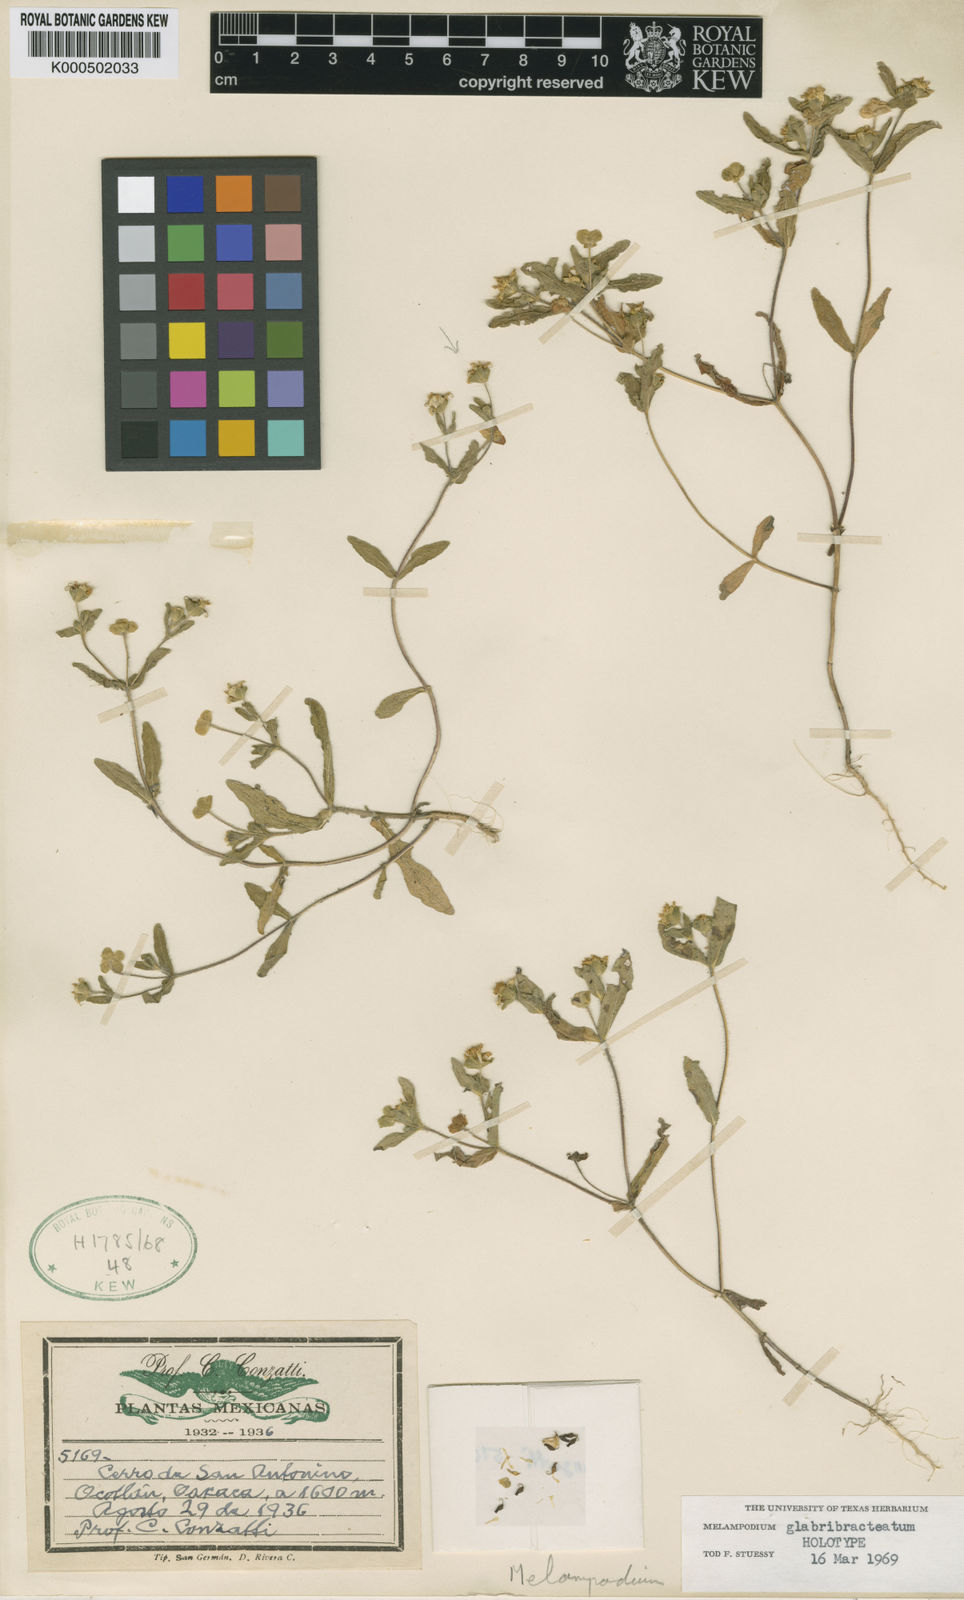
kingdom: Plantae
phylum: Tracheophyta
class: Magnoliopsida
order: Asterales
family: Asteraceae
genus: Melampodium
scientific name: Melampodium glabribracteatum
